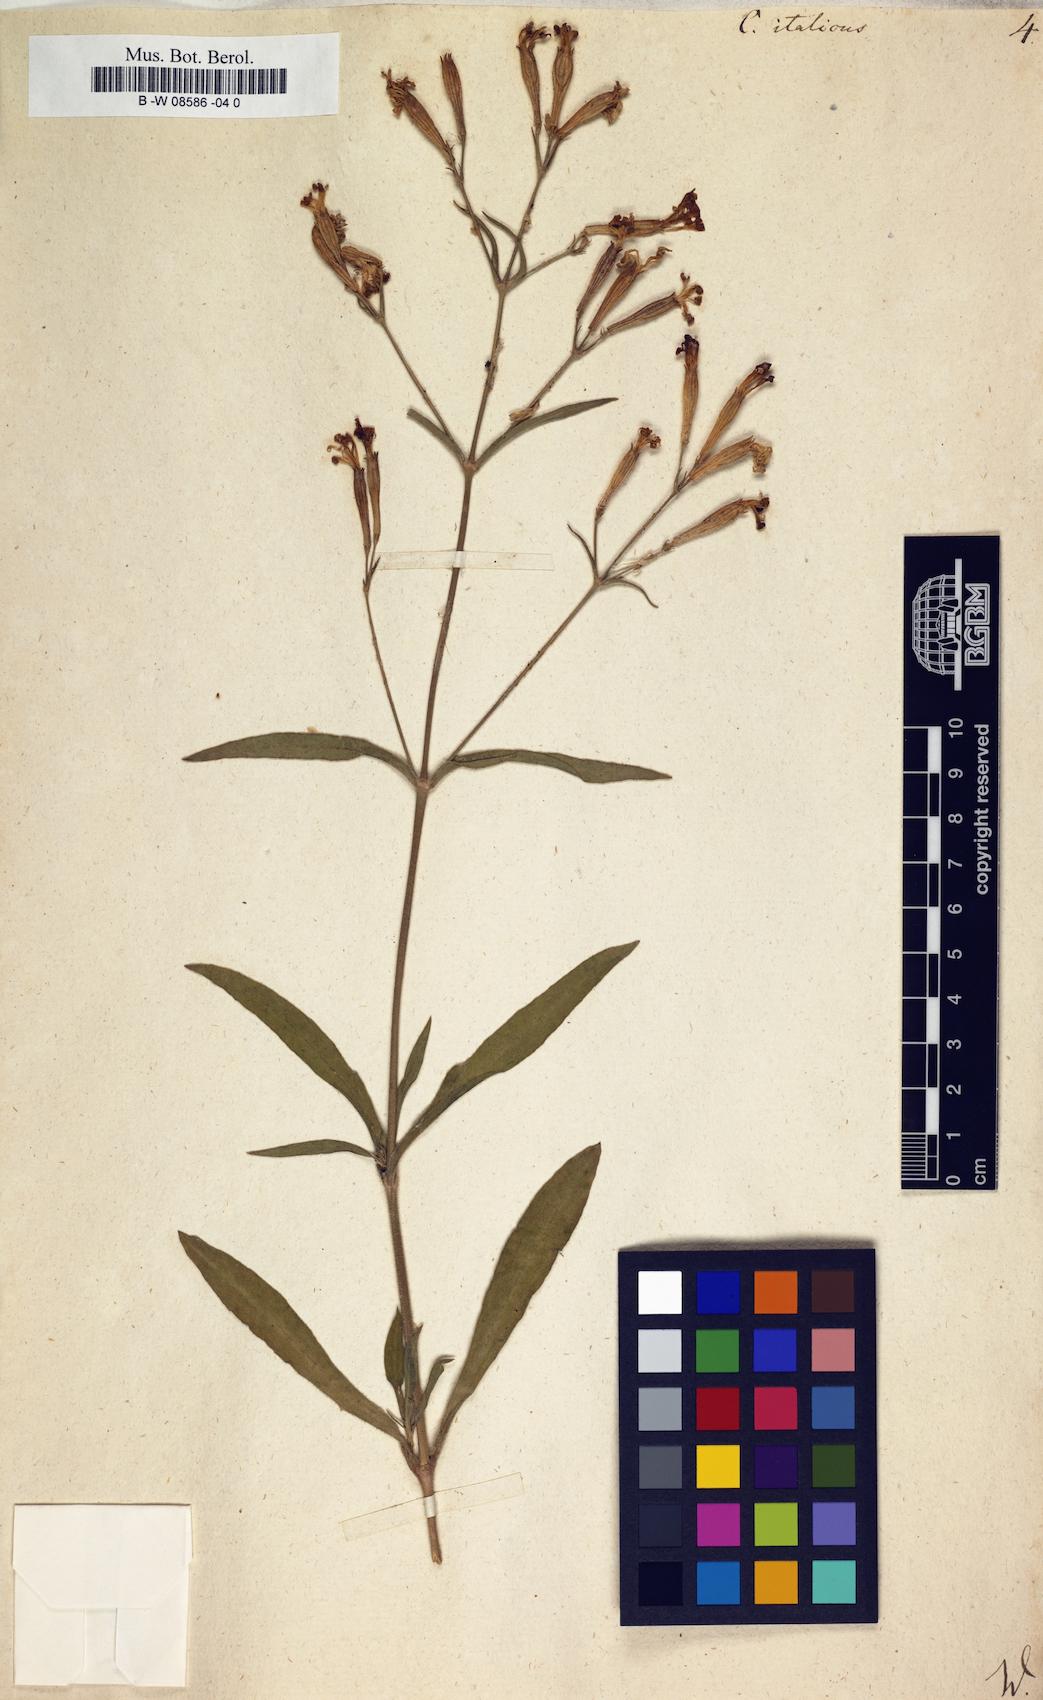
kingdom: Plantae
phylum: Tracheophyta
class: Magnoliopsida
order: Caryophyllales
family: Caryophyllaceae
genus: Silene
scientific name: Silene italica
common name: Italian catchfly
